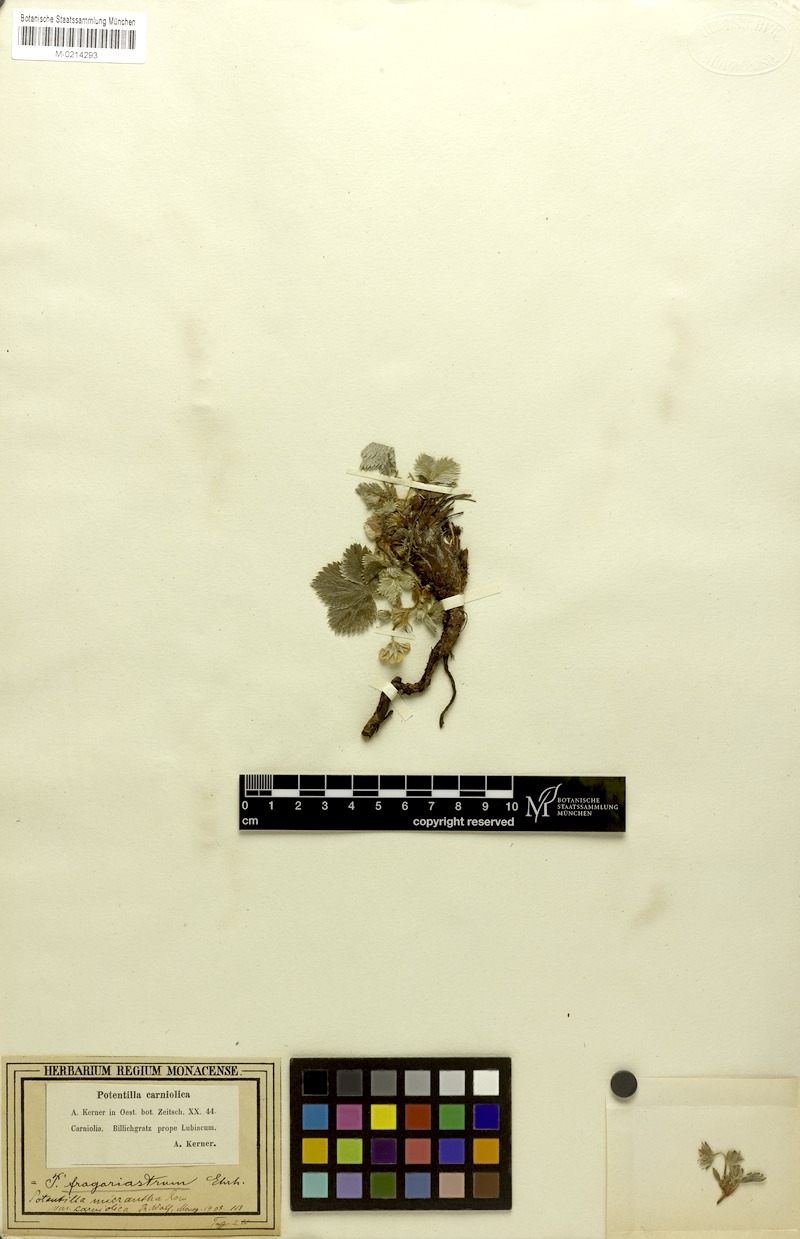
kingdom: Plantae
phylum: Tracheophyta
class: Magnoliopsida
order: Rosales
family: Rosaceae
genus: Potentilla
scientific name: Potentilla carniolica
